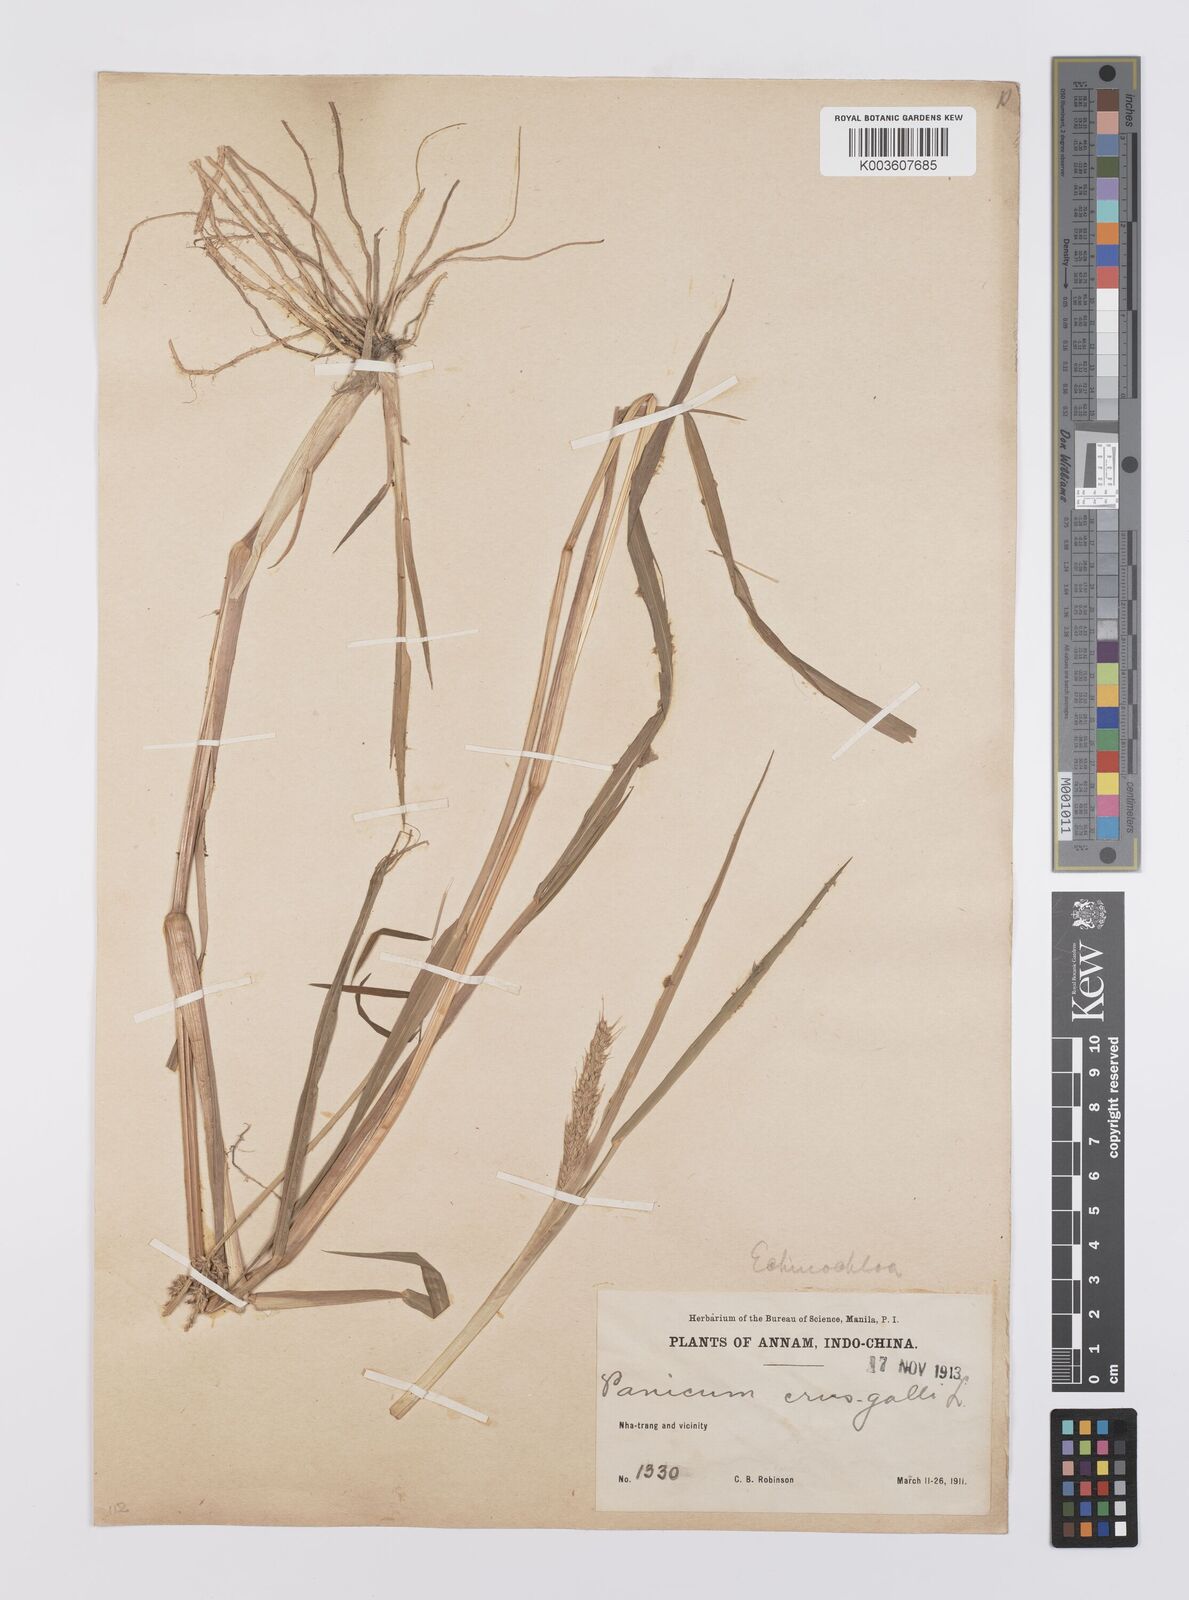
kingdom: Plantae
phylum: Tracheophyta
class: Liliopsida
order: Poales
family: Poaceae
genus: Echinochloa
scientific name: Echinochloa crus-galli
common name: Cockspur
